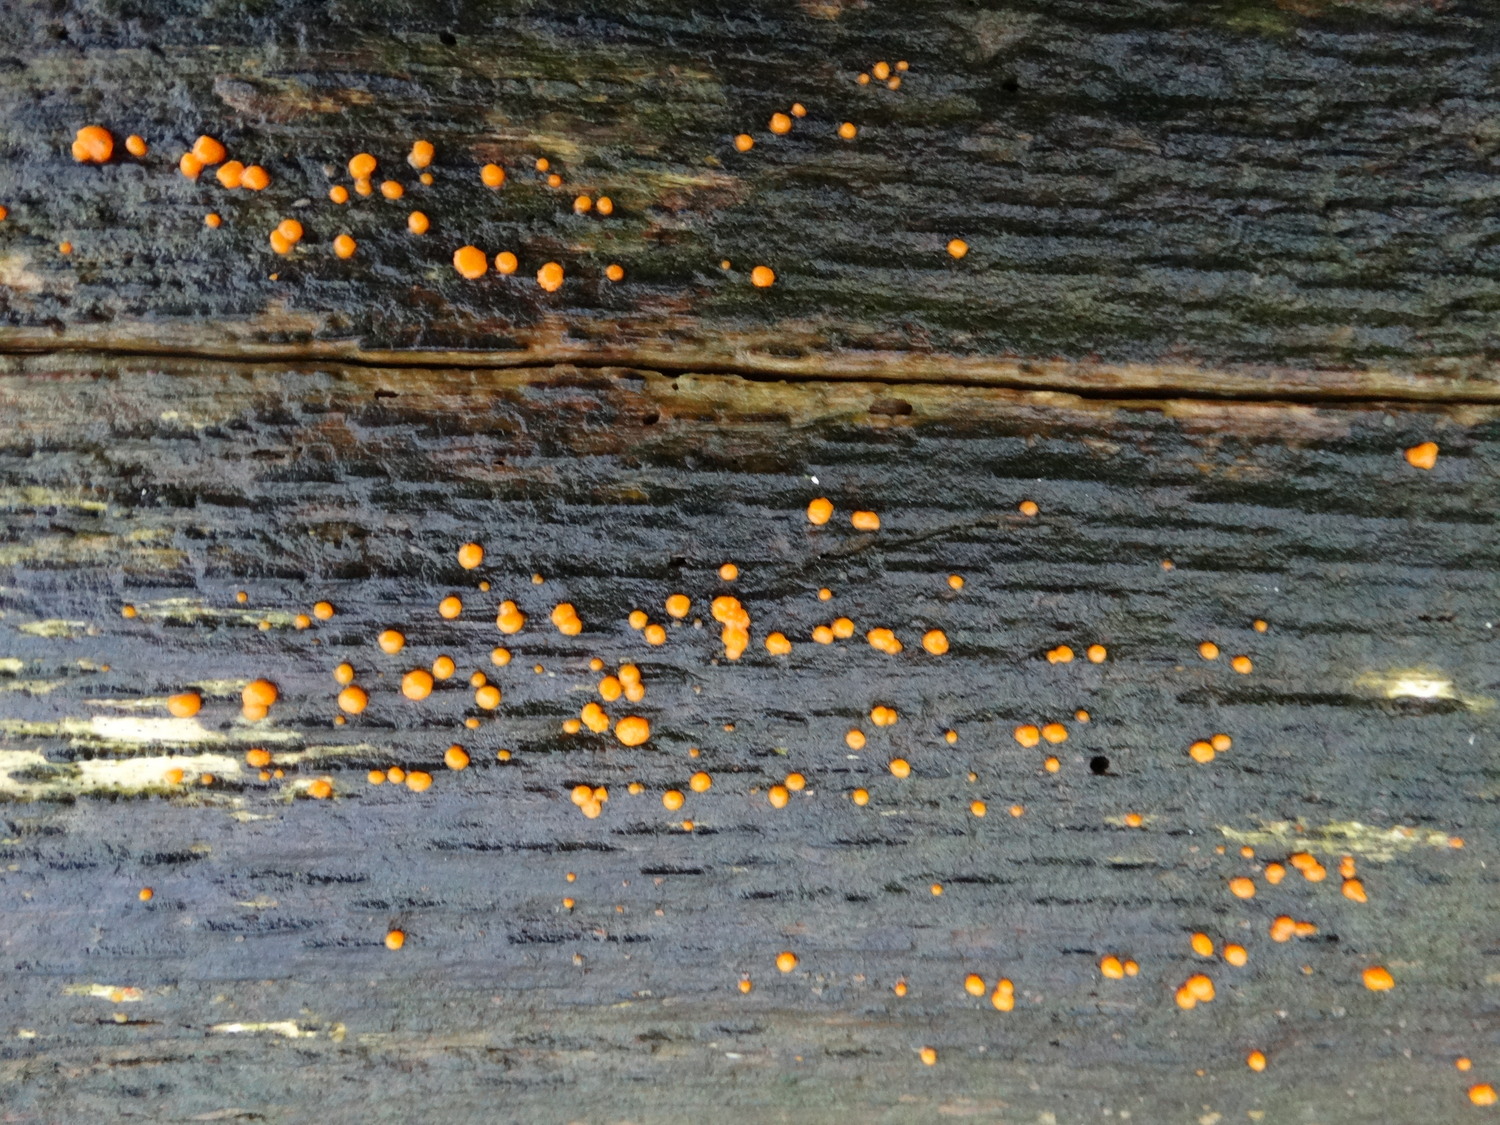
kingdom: Fungi
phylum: Basidiomycota
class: Dacrymycetes
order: Dacrymycetales
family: Dacrymycetaceae
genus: Dacrymyces
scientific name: Dacrymyces stillatus
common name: almindelig tåresvamp
